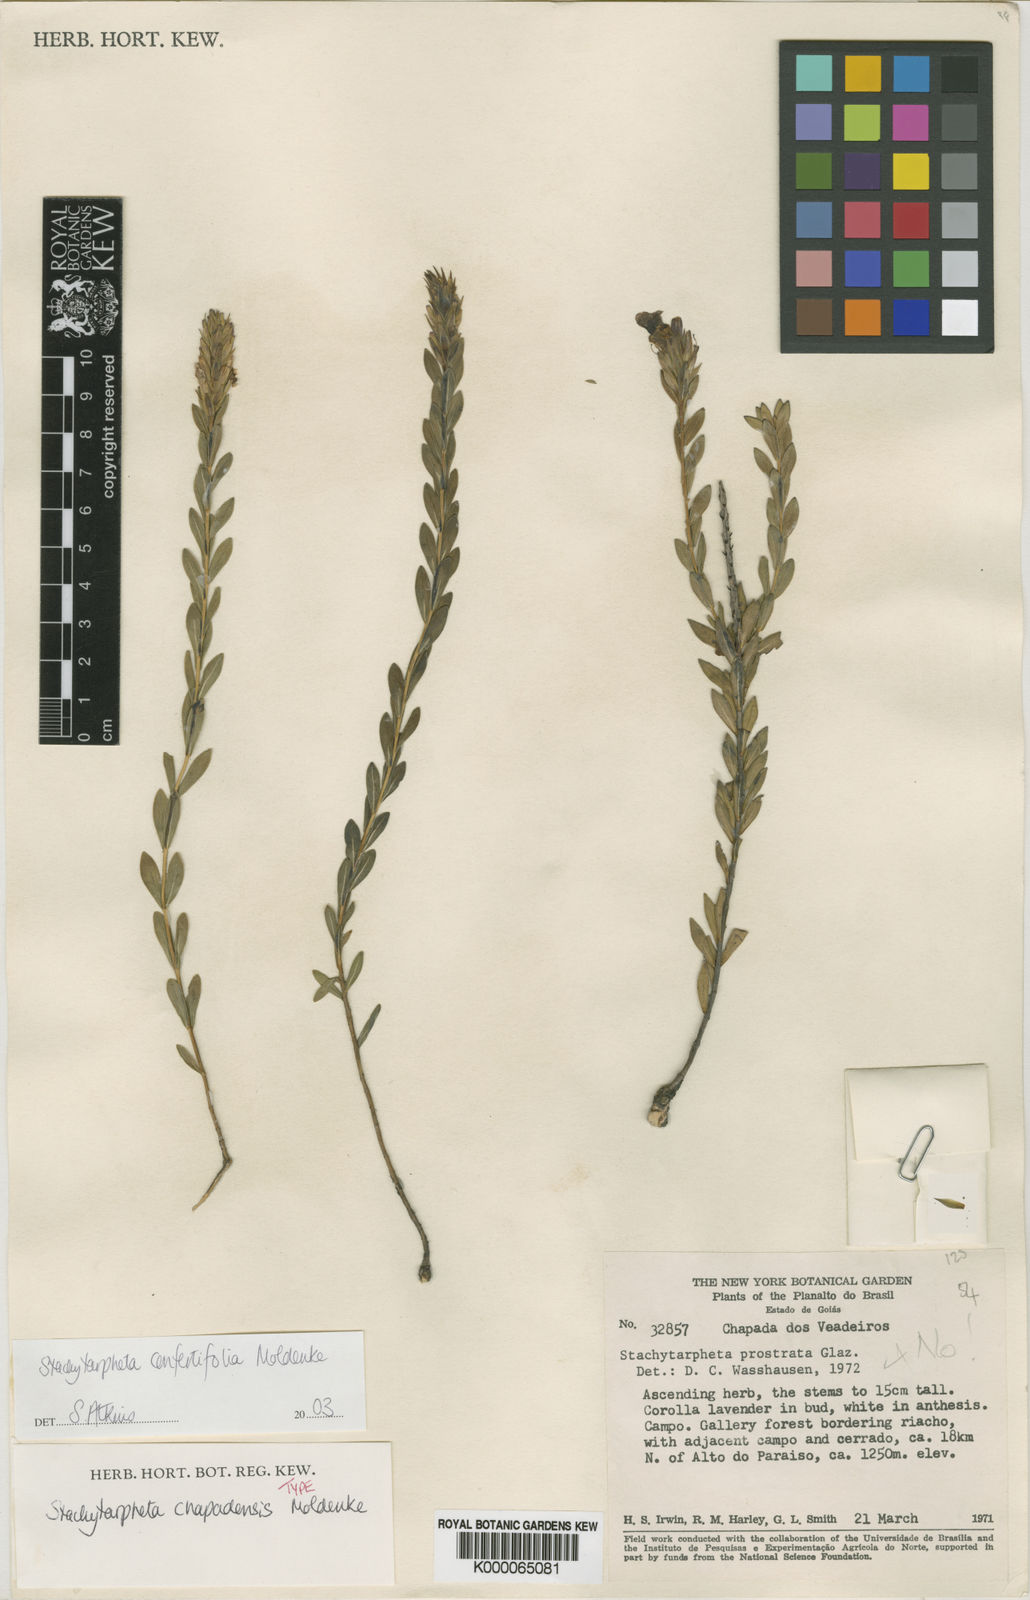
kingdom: Plantae
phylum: Tracheophyta
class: Magnoliopsida
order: Lamiales
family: Verbenaceae
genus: Stachytarpheta
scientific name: Stachytarpheta confertifolia
